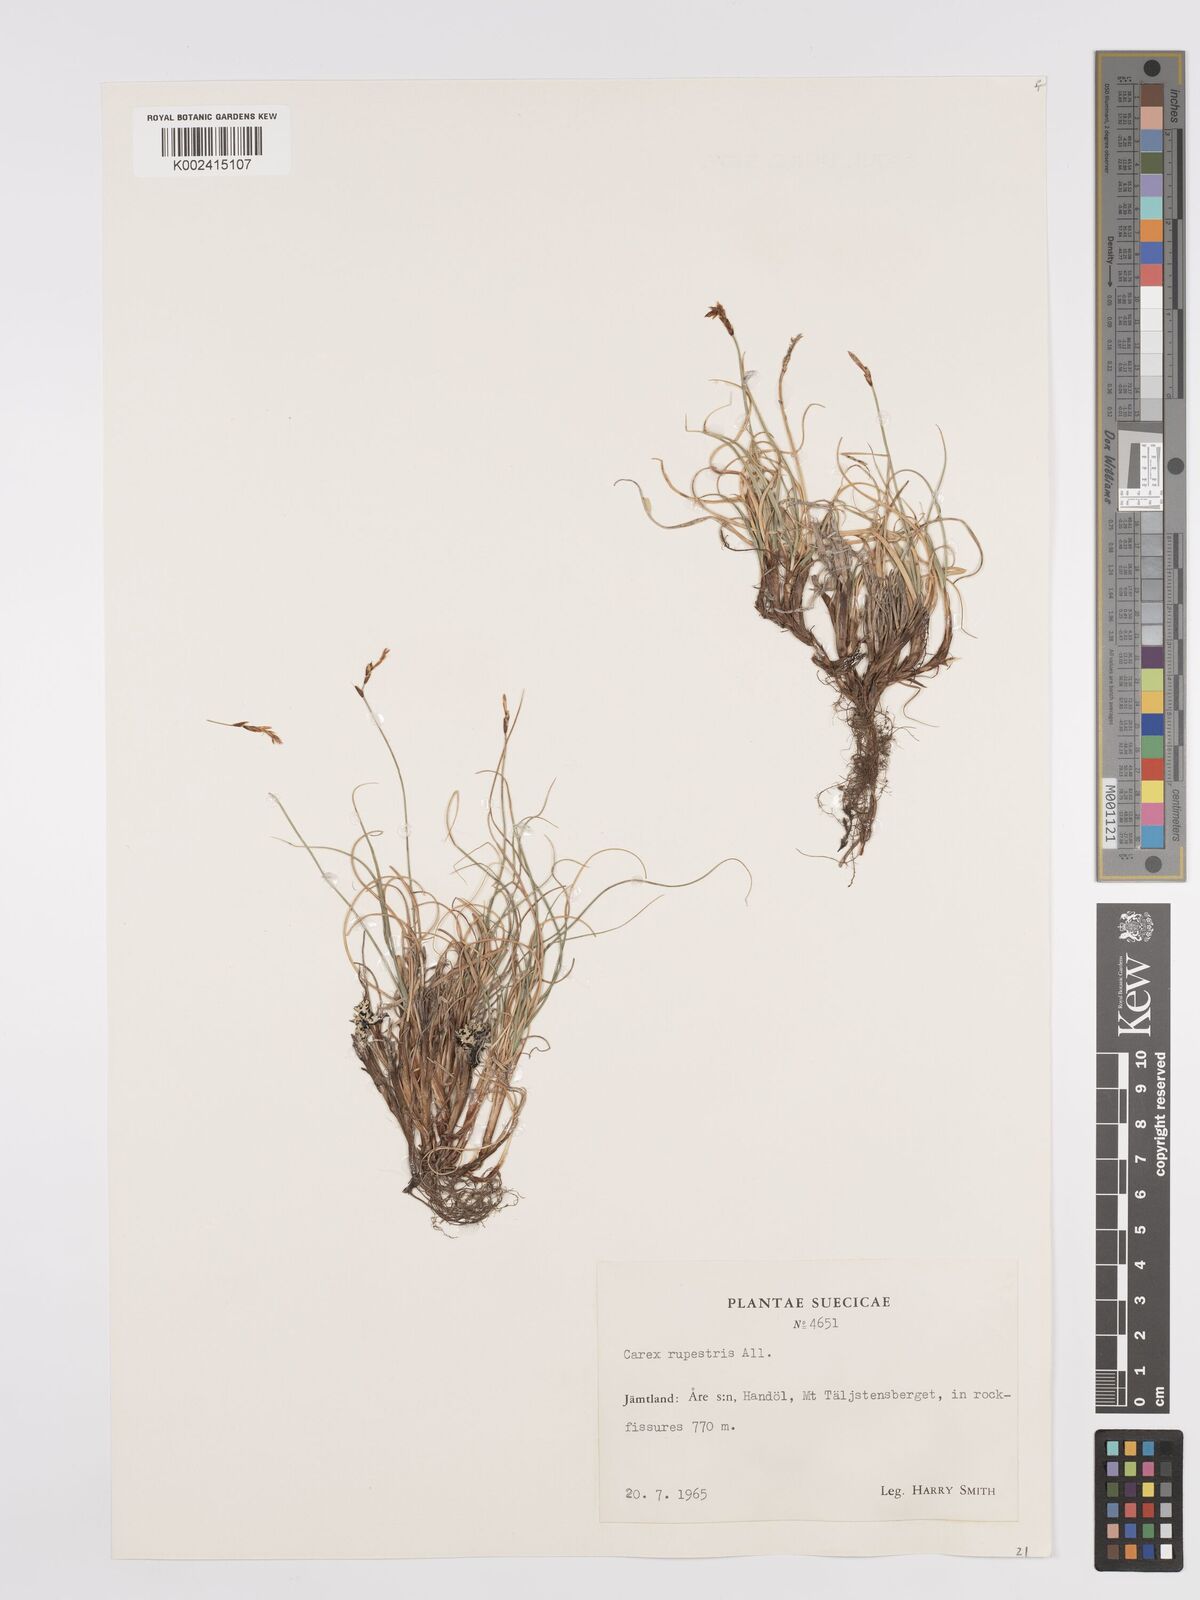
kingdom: Plantae
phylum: Tracheophyta
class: Liliopsida
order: Poales
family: Cyperaceae
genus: Carex
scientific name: Carex rupestris
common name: Rock sedge
